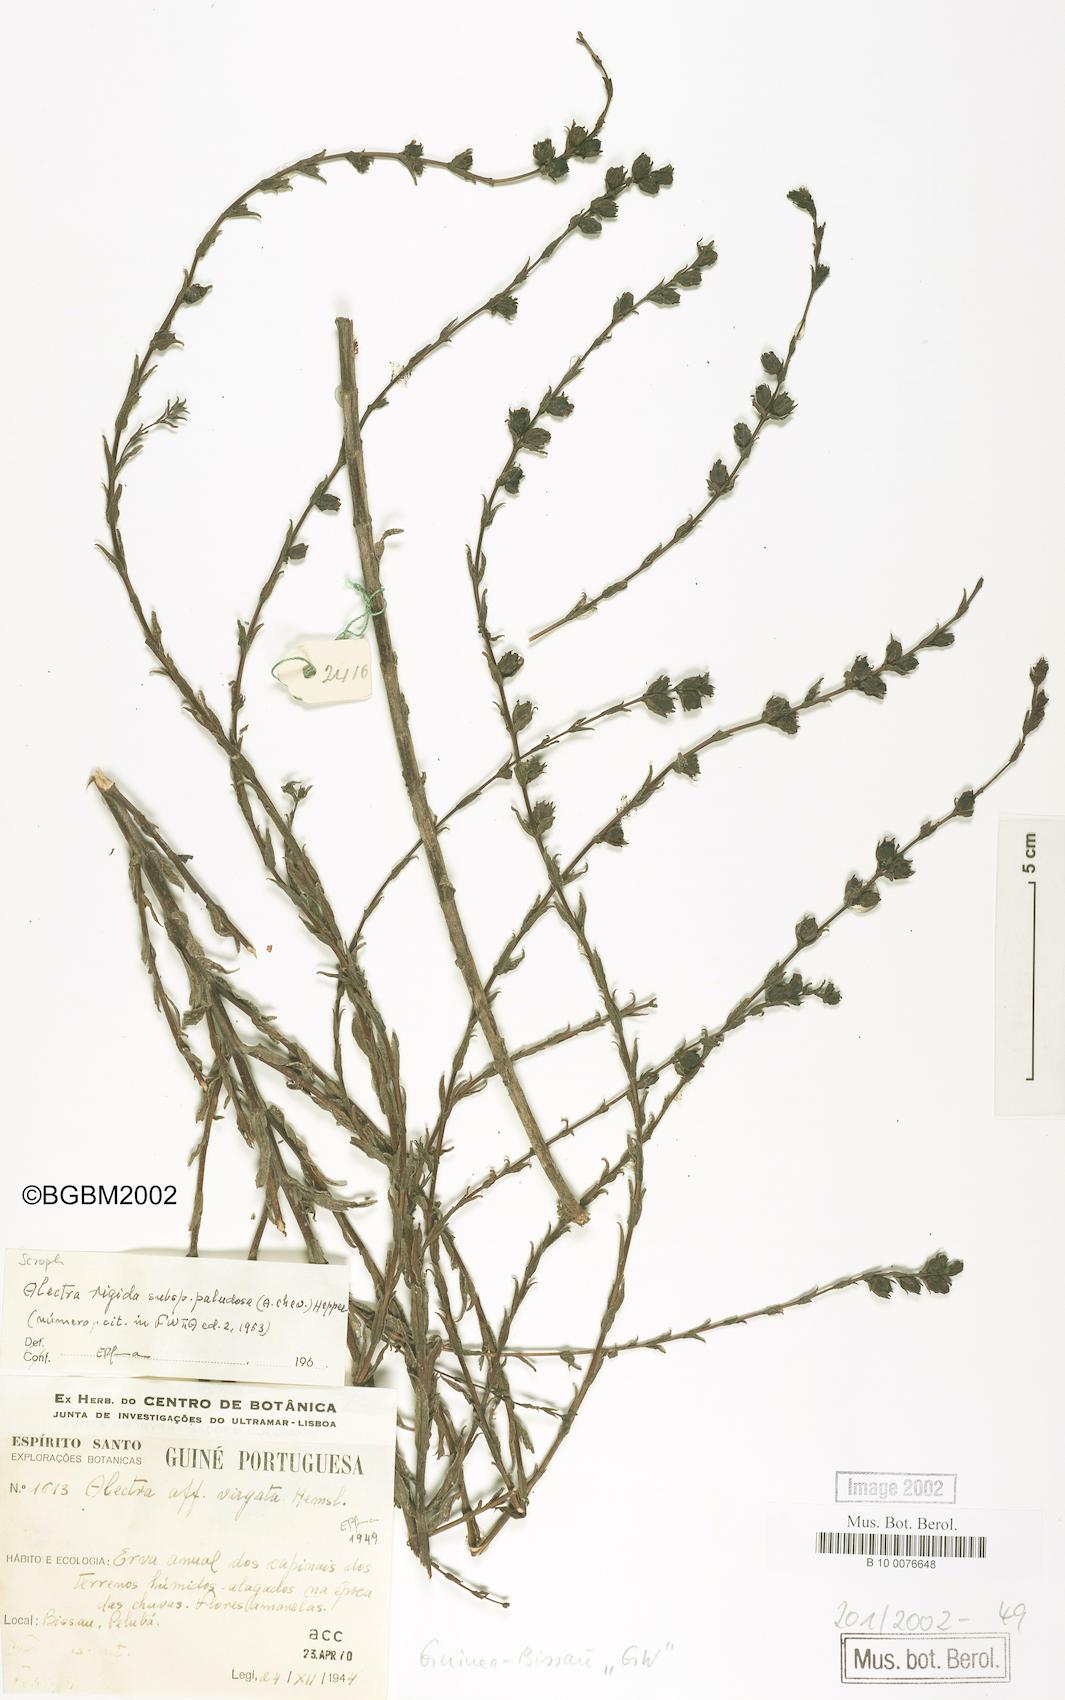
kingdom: Plantae
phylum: Tracheophyta
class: Magnoliopsida
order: Lamiales
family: Orobanchaceae
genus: Alectra
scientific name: Alectra virgata
